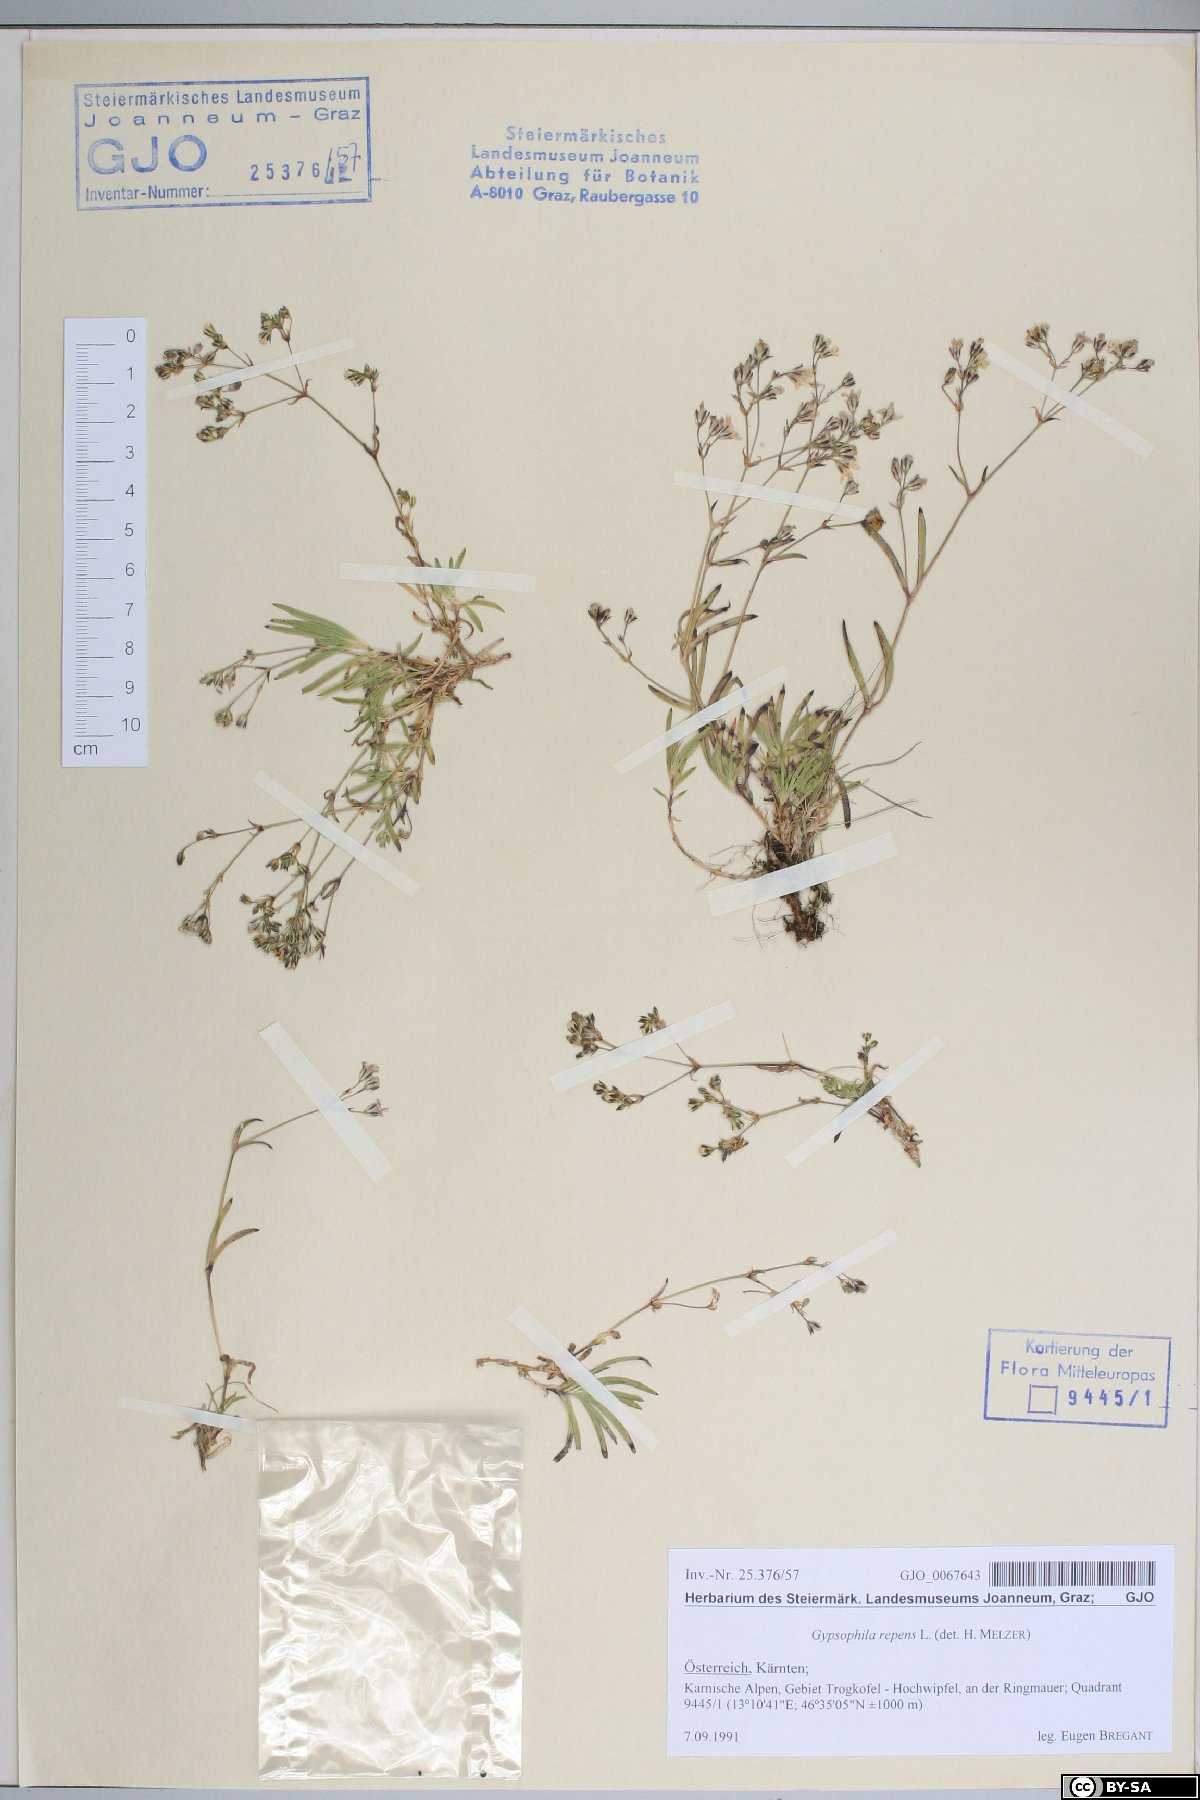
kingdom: Plantae
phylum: Tracheophyta
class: Magnoliopsida
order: Caryophyllales
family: Caryophyllaceae
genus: Gypsophila
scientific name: Gypsophila repens
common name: Creeping baby's-breath
